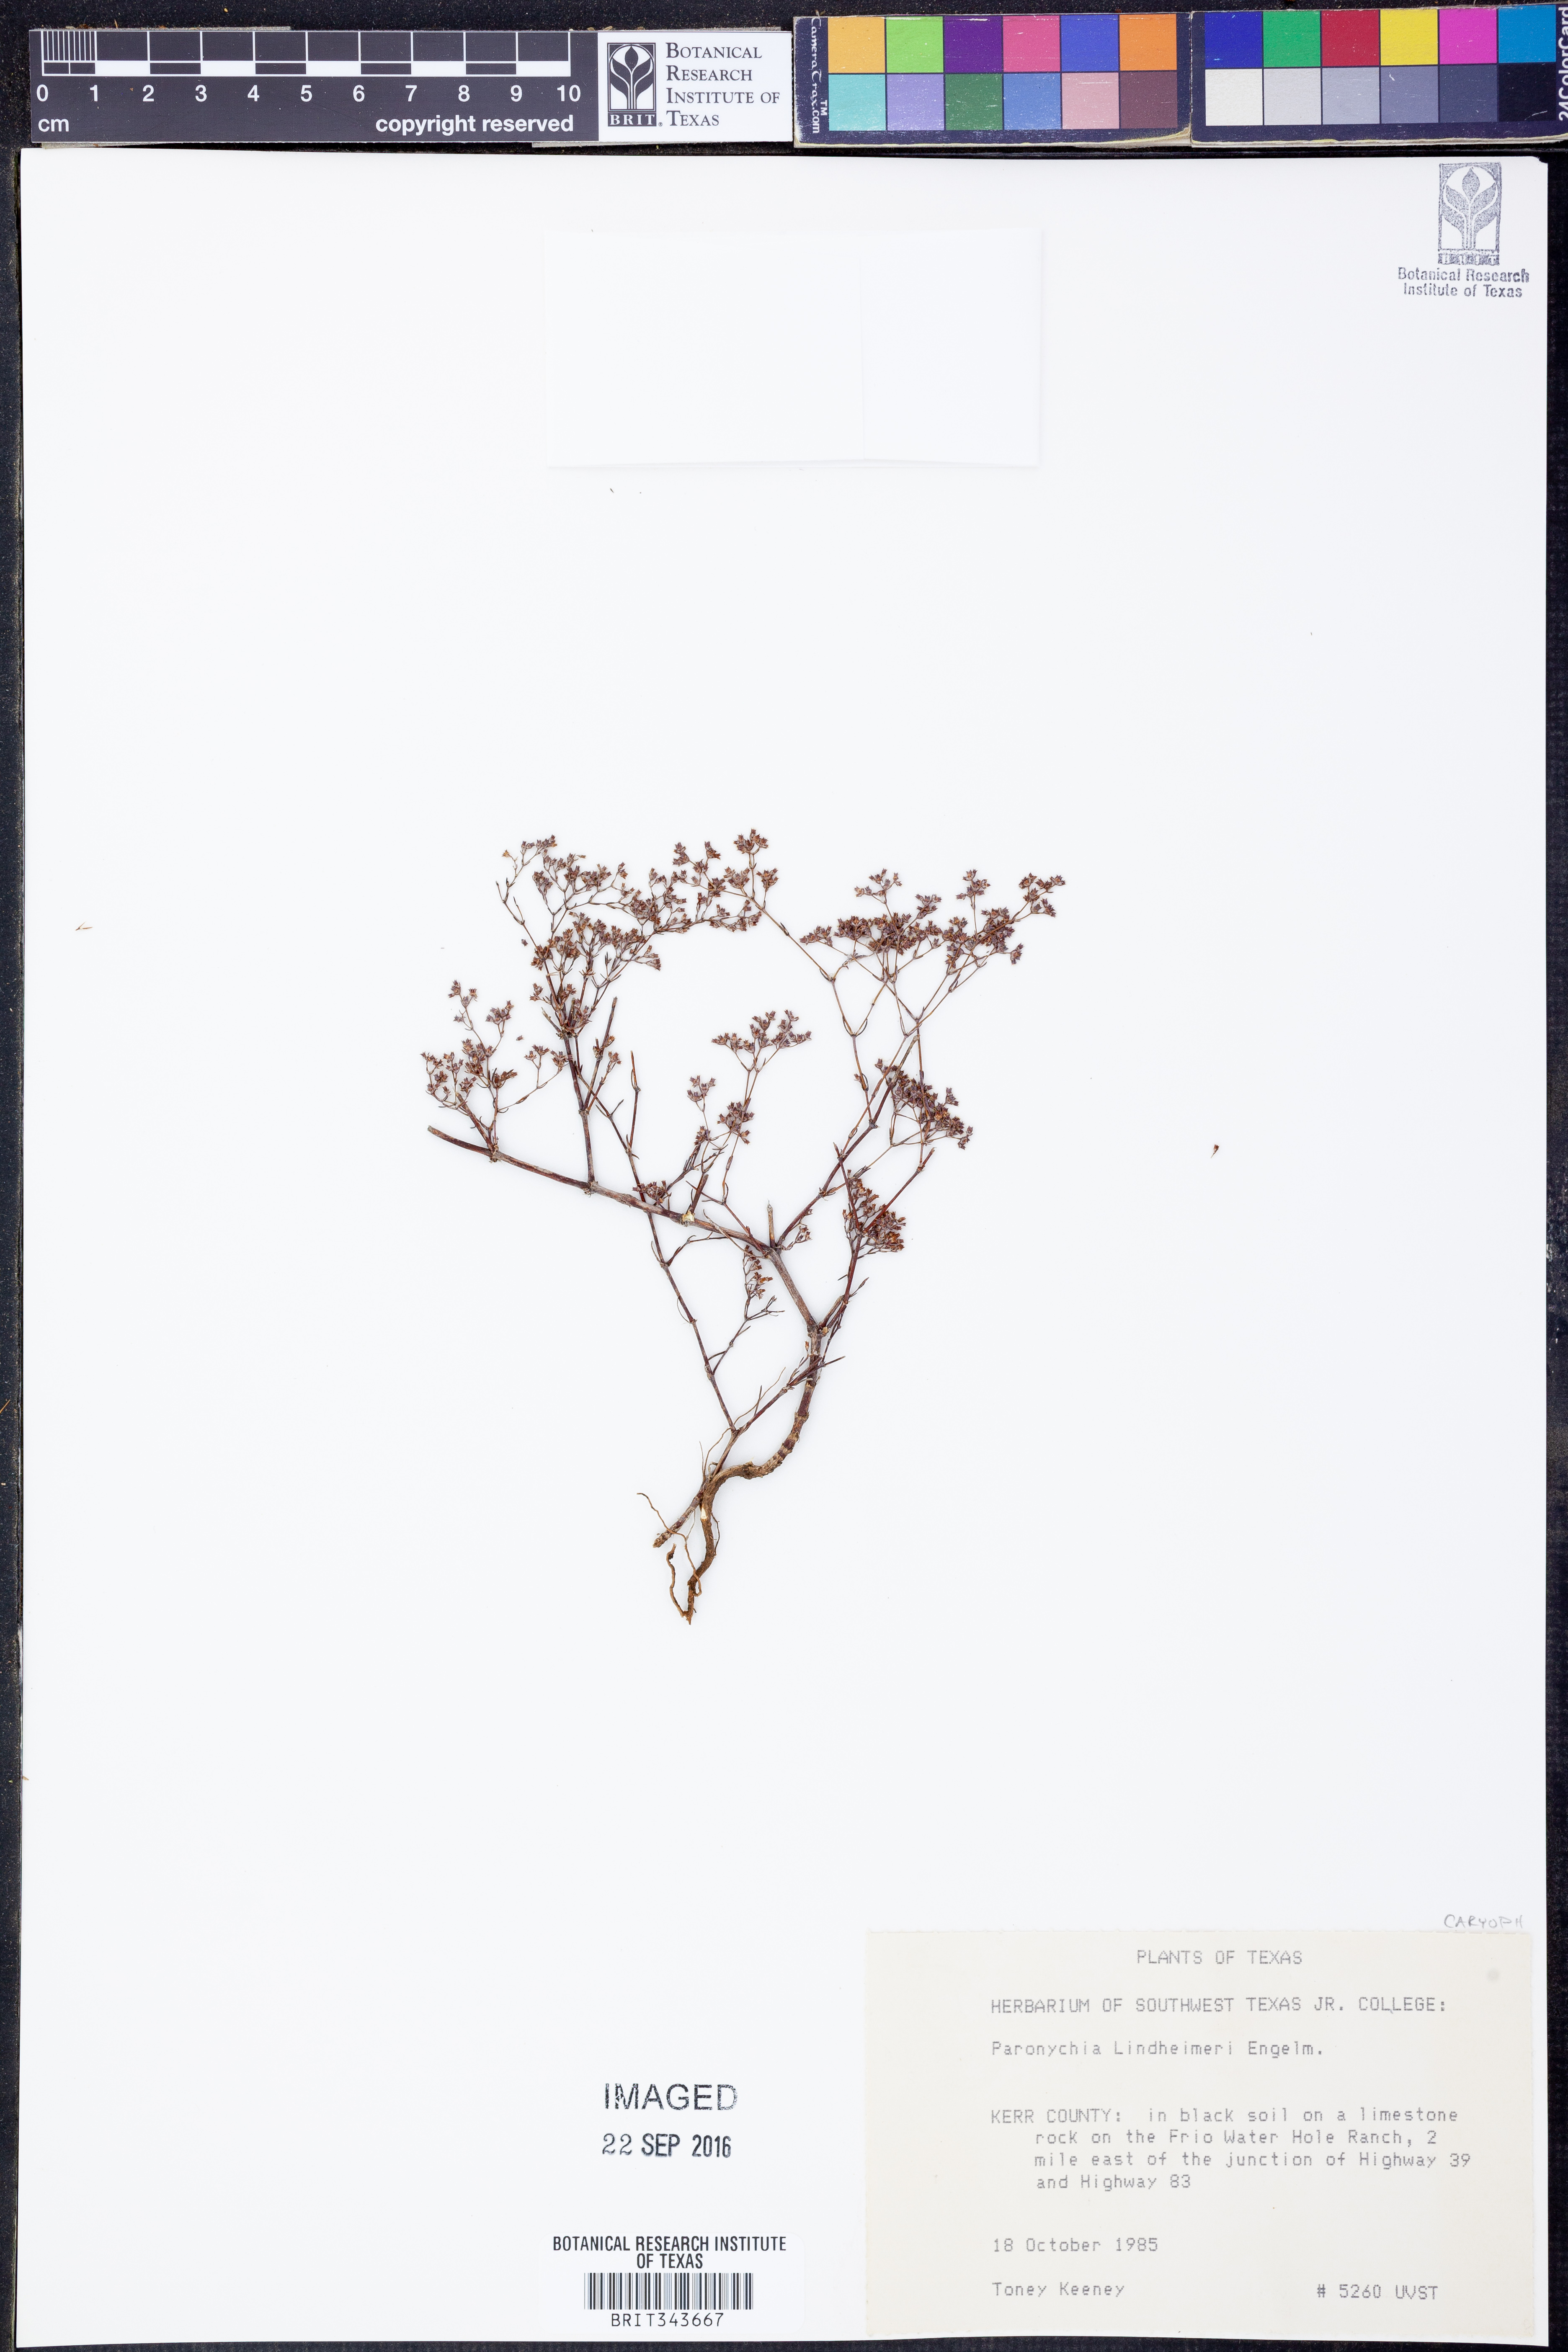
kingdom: Plantae
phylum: Tracheophyta
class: Magnoliopsida
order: Caryophyllales
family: Caryophyllaceae
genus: Paronychia
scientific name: Paronychia lindheimeri
